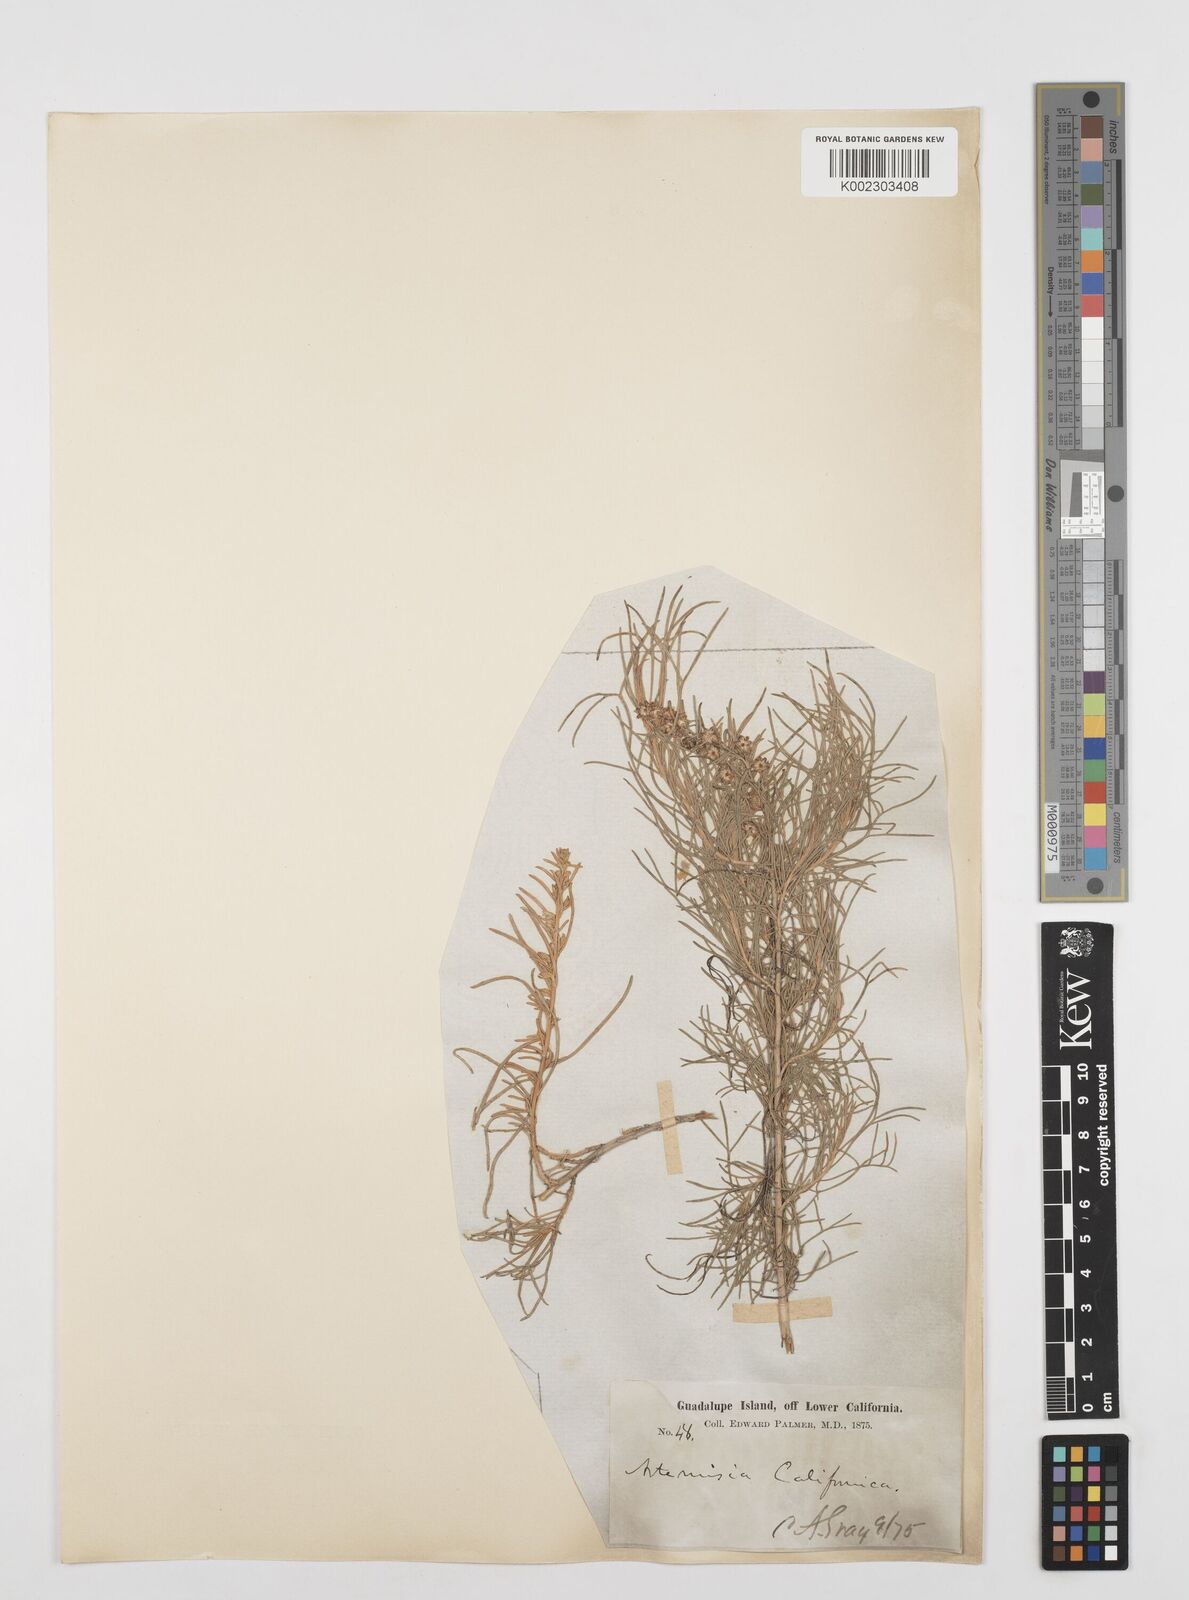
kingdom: Plantae
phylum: Tracheophyta
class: Magnoliopsida
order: Asterales
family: Asteraceae
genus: Artemisia
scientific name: Artemisia californica
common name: California sagebrush
